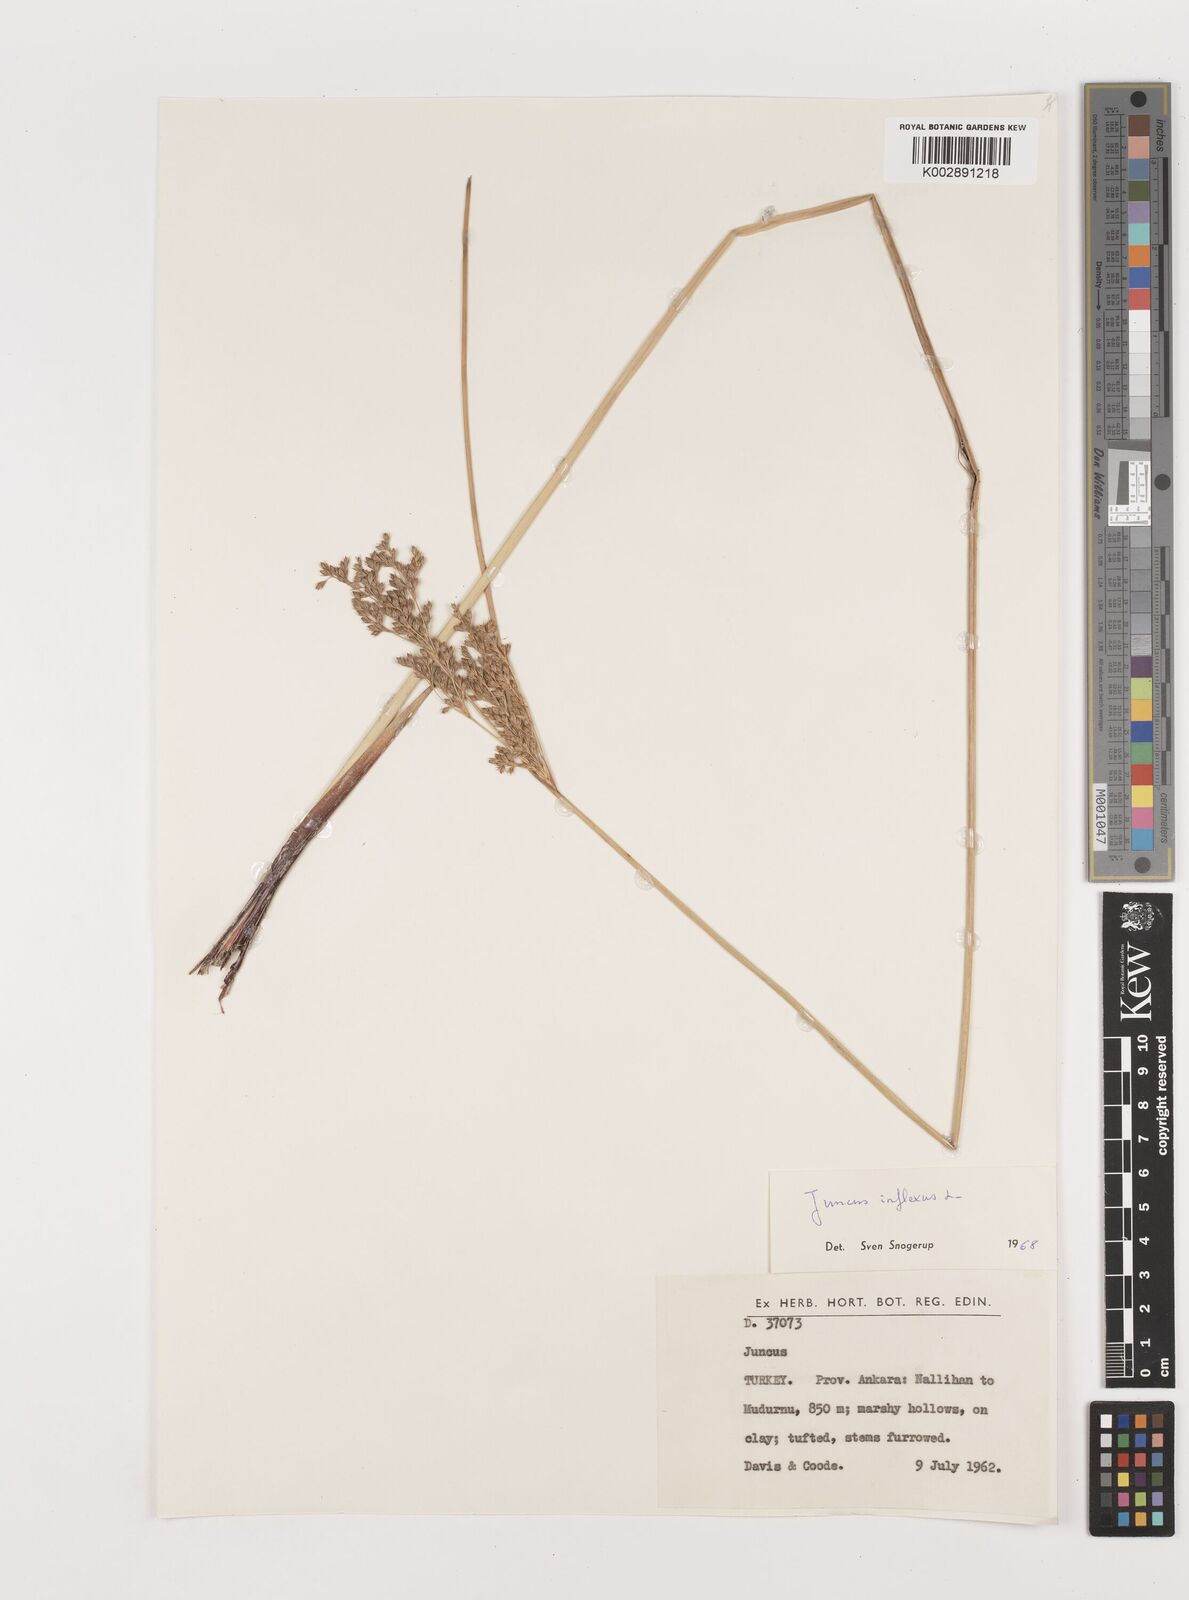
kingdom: Plantae
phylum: Tracheophyta
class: Liliopsida
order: Poales
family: Juncaceae
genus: Juncus
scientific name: Juncus inflexus
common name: Hard rush
